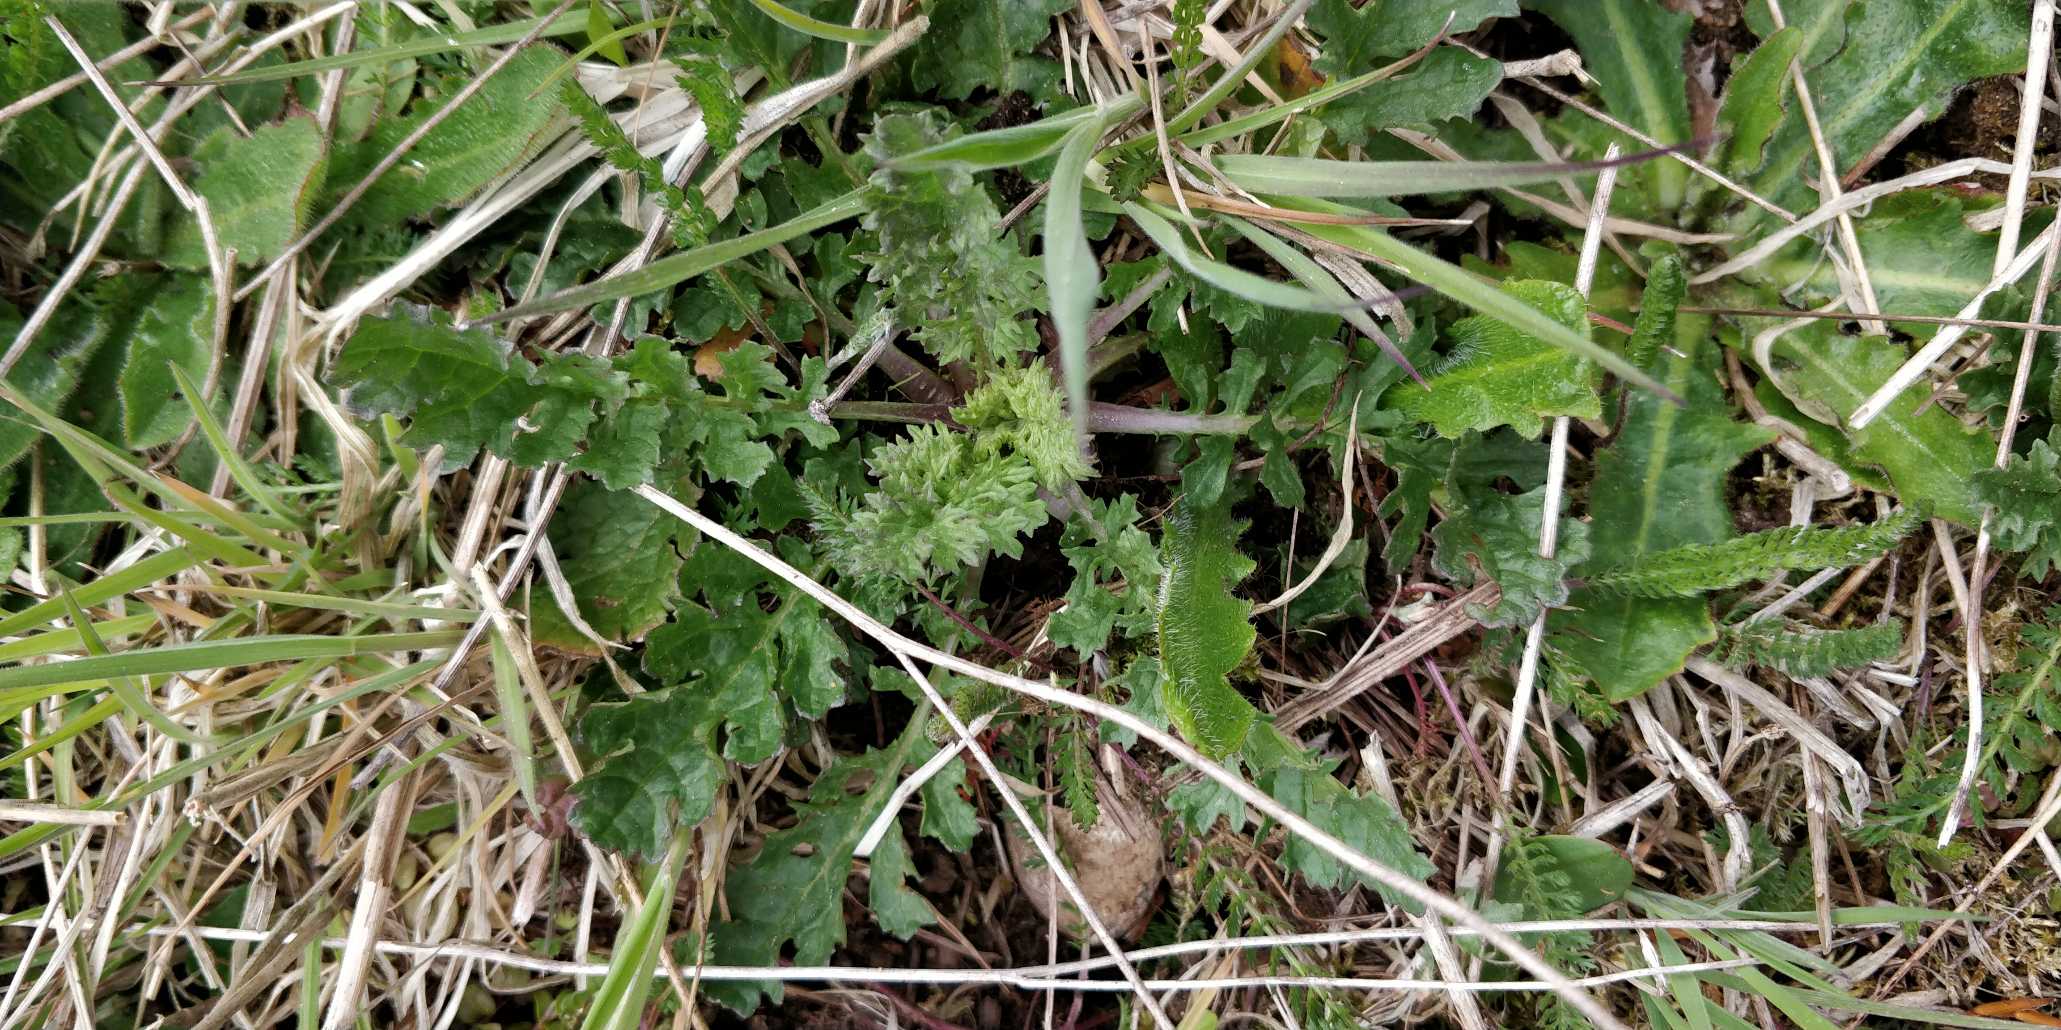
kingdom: Plantae
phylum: Tracheophyta
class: Magnoliopsida
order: Asterales
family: Asteraceae
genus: Jacobaea
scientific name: Jacobaea vulgaris
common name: Eng-brandbæger
